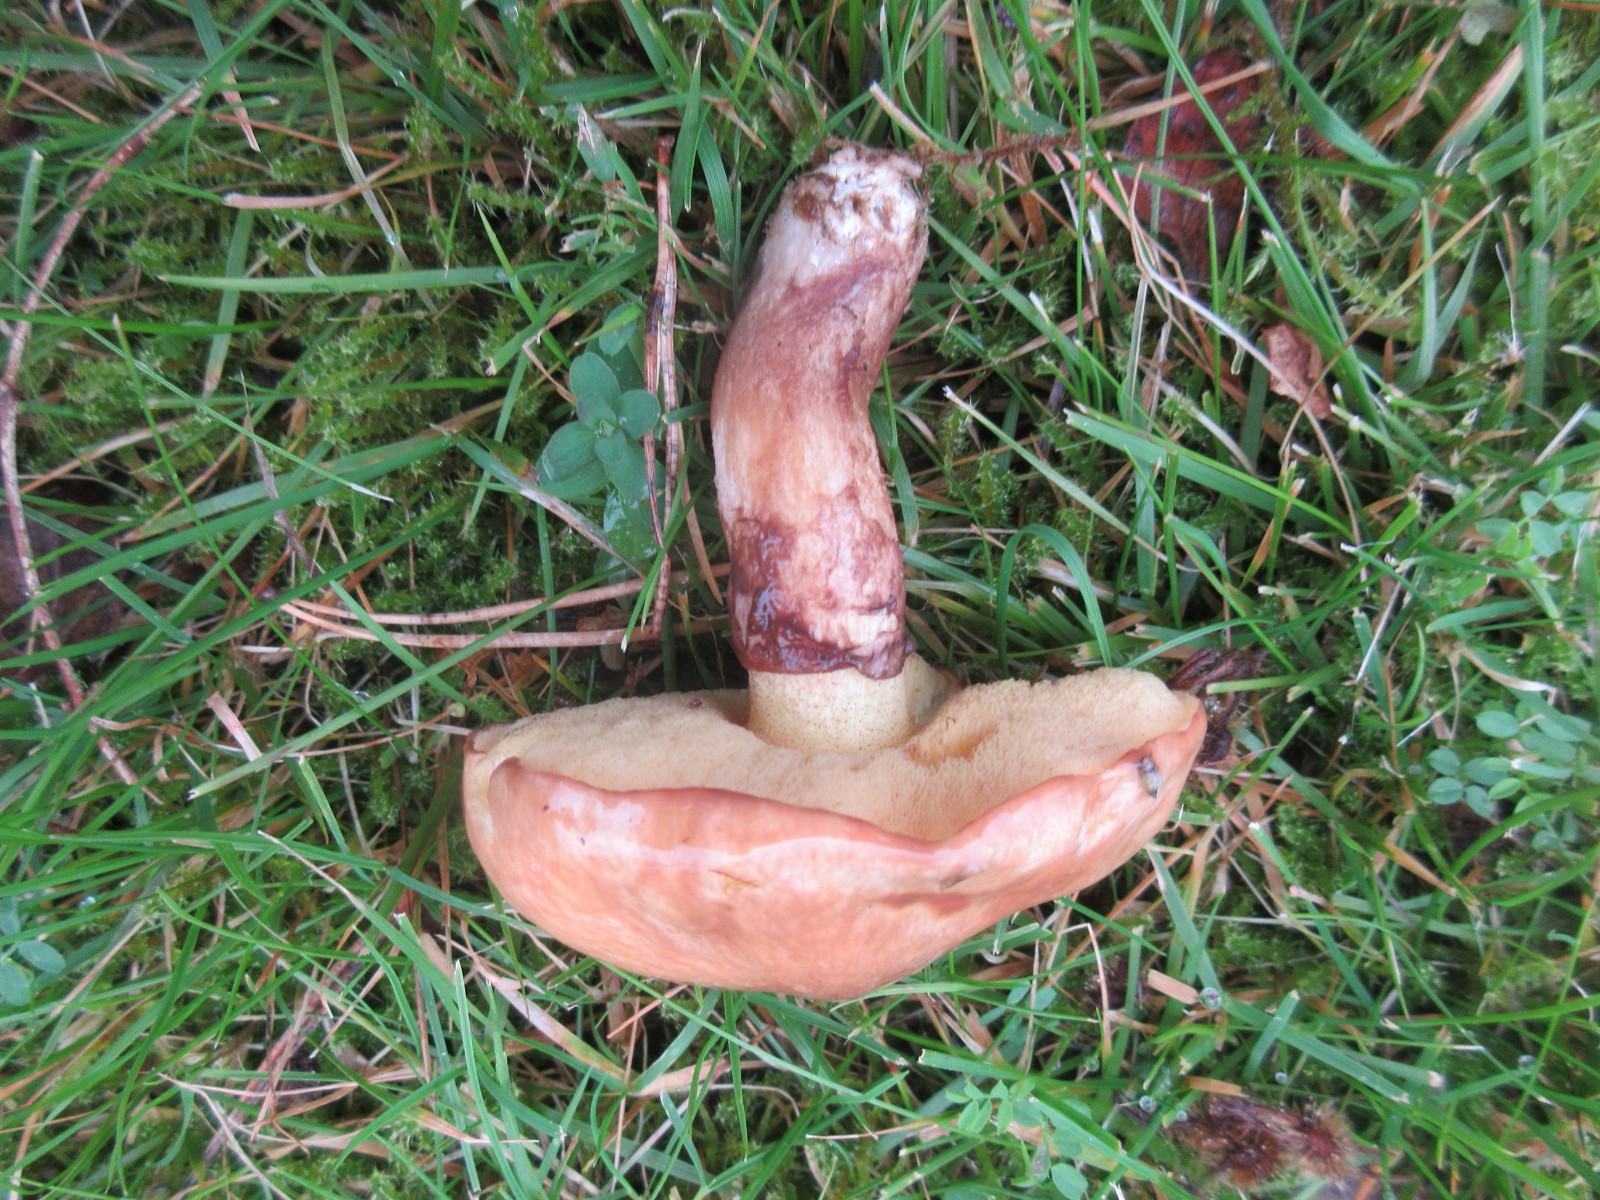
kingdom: Fungi
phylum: Basidiomycota
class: Agaricomycetes
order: Boletales
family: Suillaceae
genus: Suillus
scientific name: Suillus luteus
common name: brungul slimrørhat
